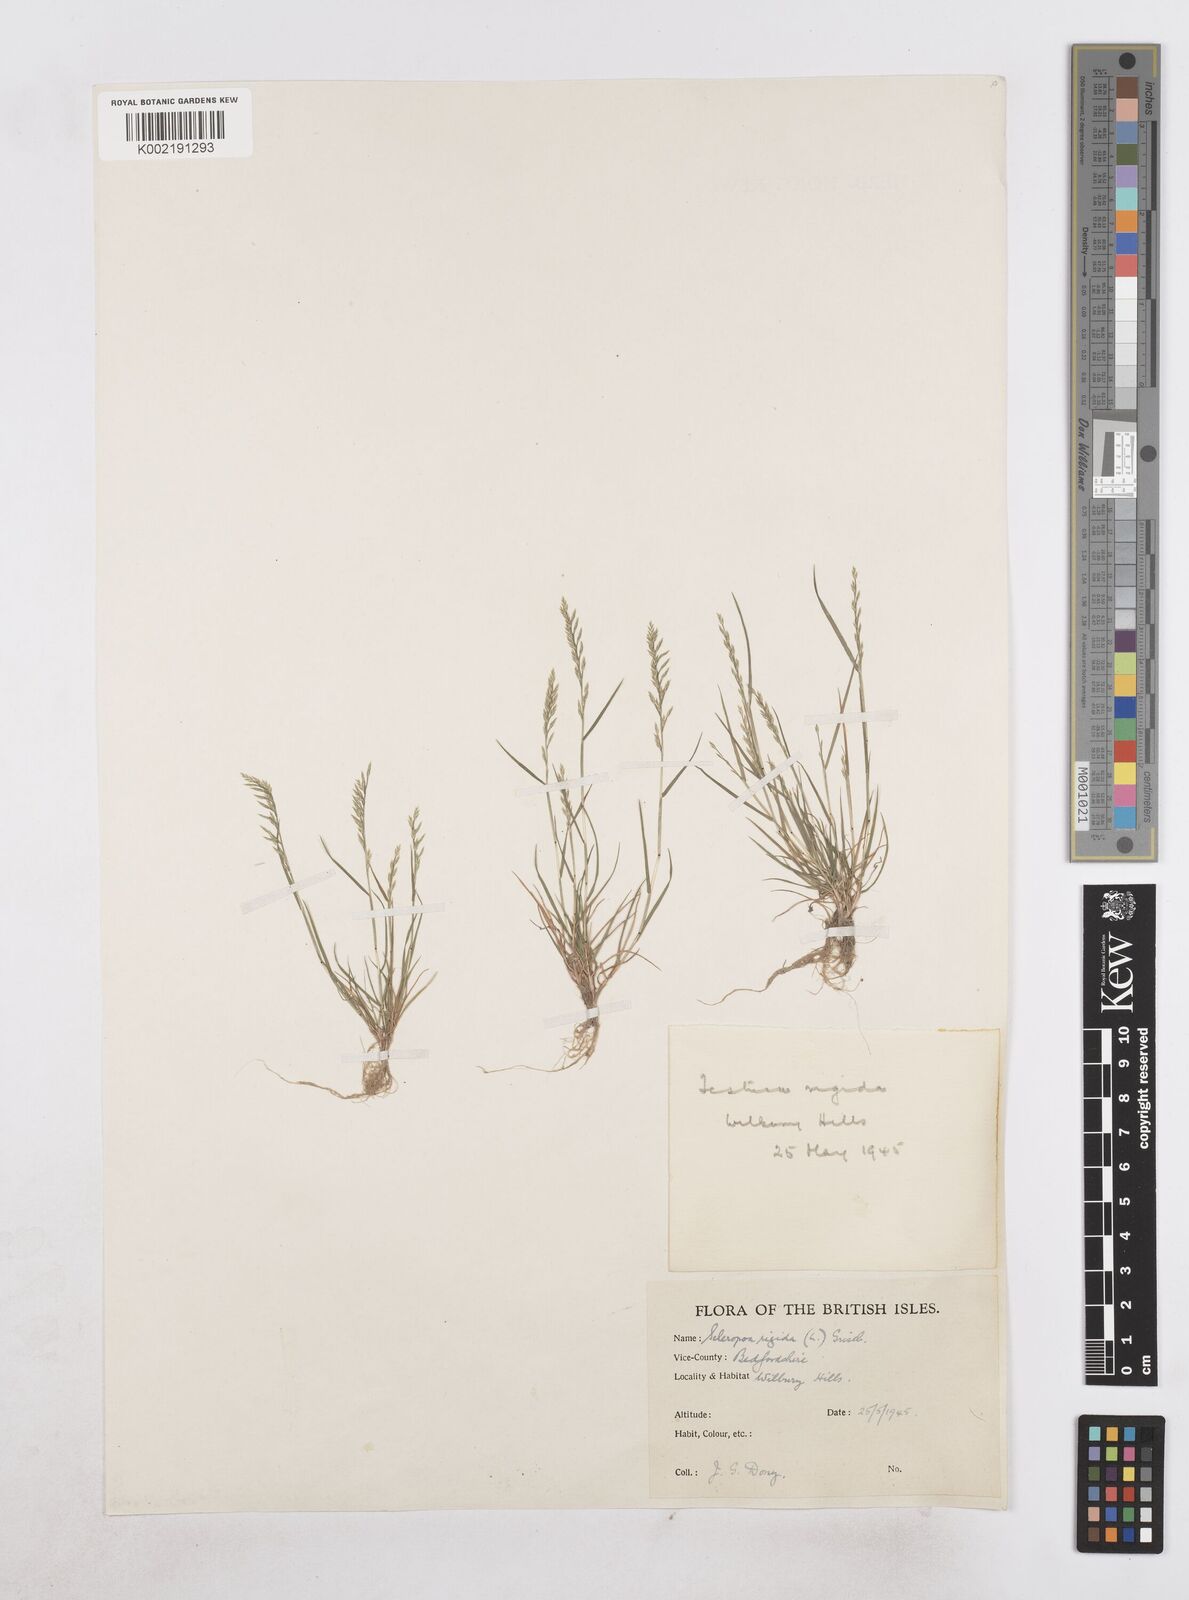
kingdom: Plantae
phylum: Tracheophyta
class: Liliopsida
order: Poales
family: Poaceae
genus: Catapodium
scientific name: Catapodium rigidum
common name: Fern-grass
